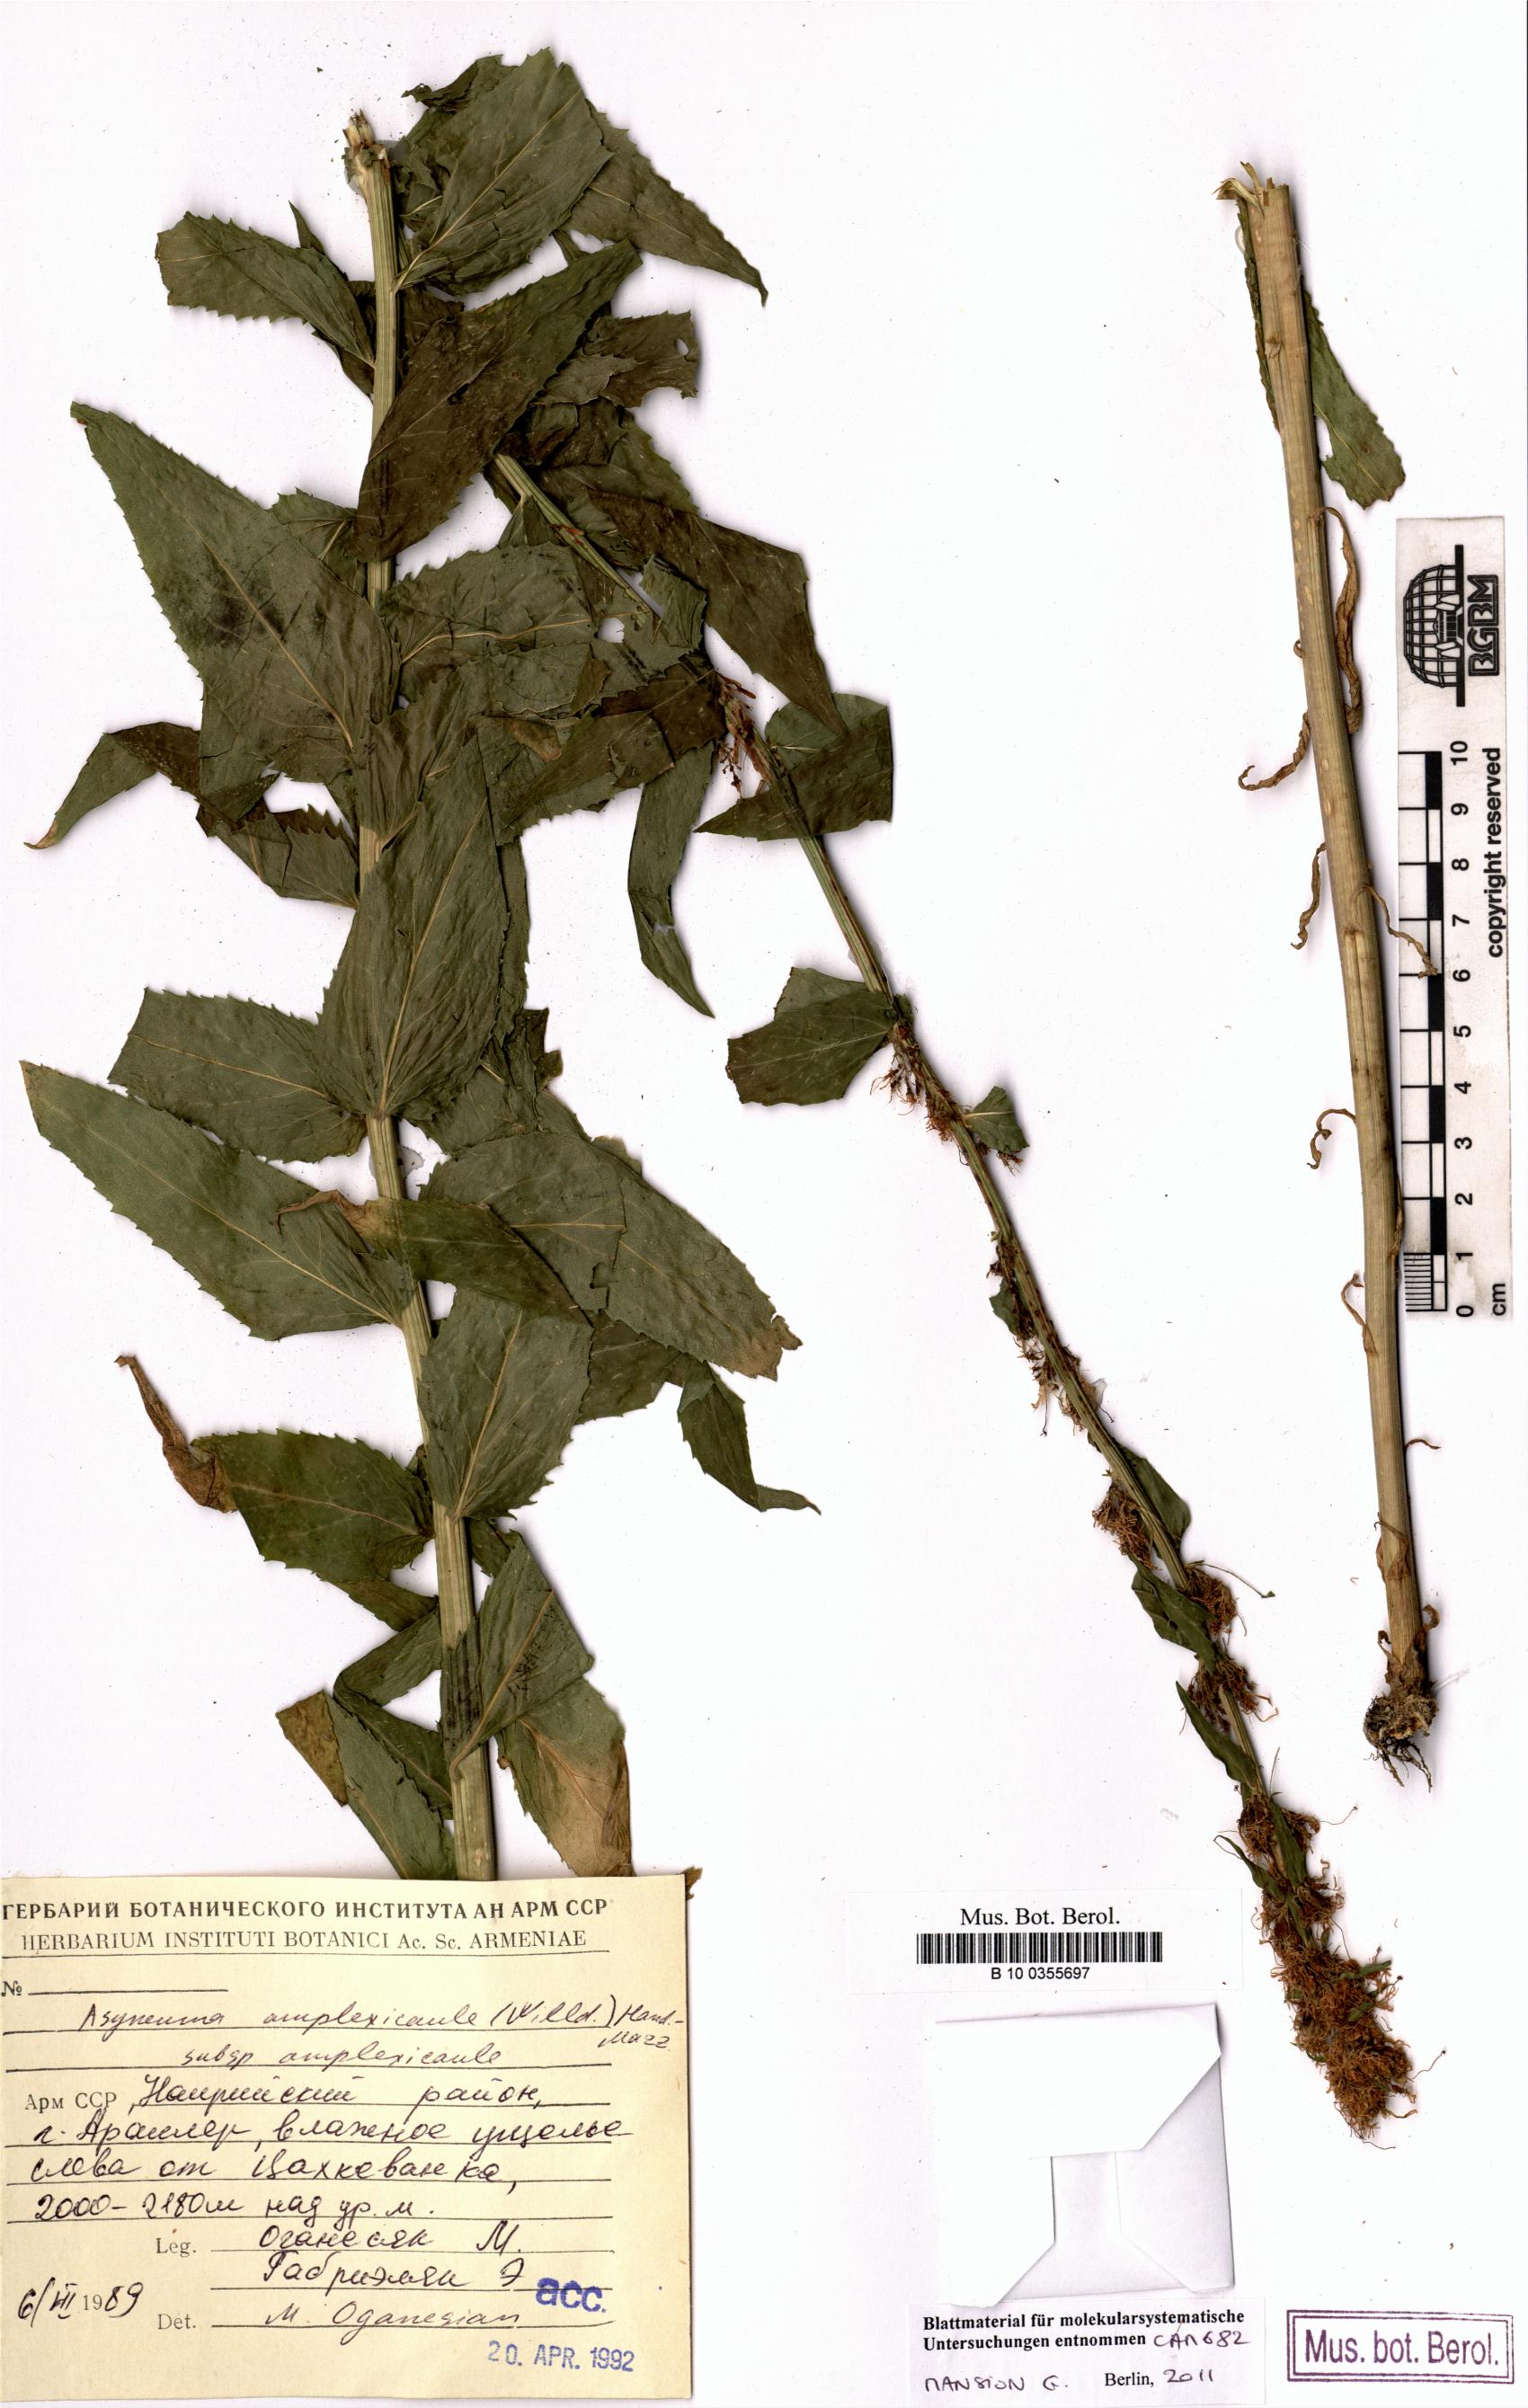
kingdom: Plantae
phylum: Tracheophyta
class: Magnoliopsida
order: Asterales
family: Campanulaceae
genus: Asyneuma
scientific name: Asyneuma amplexicaule
